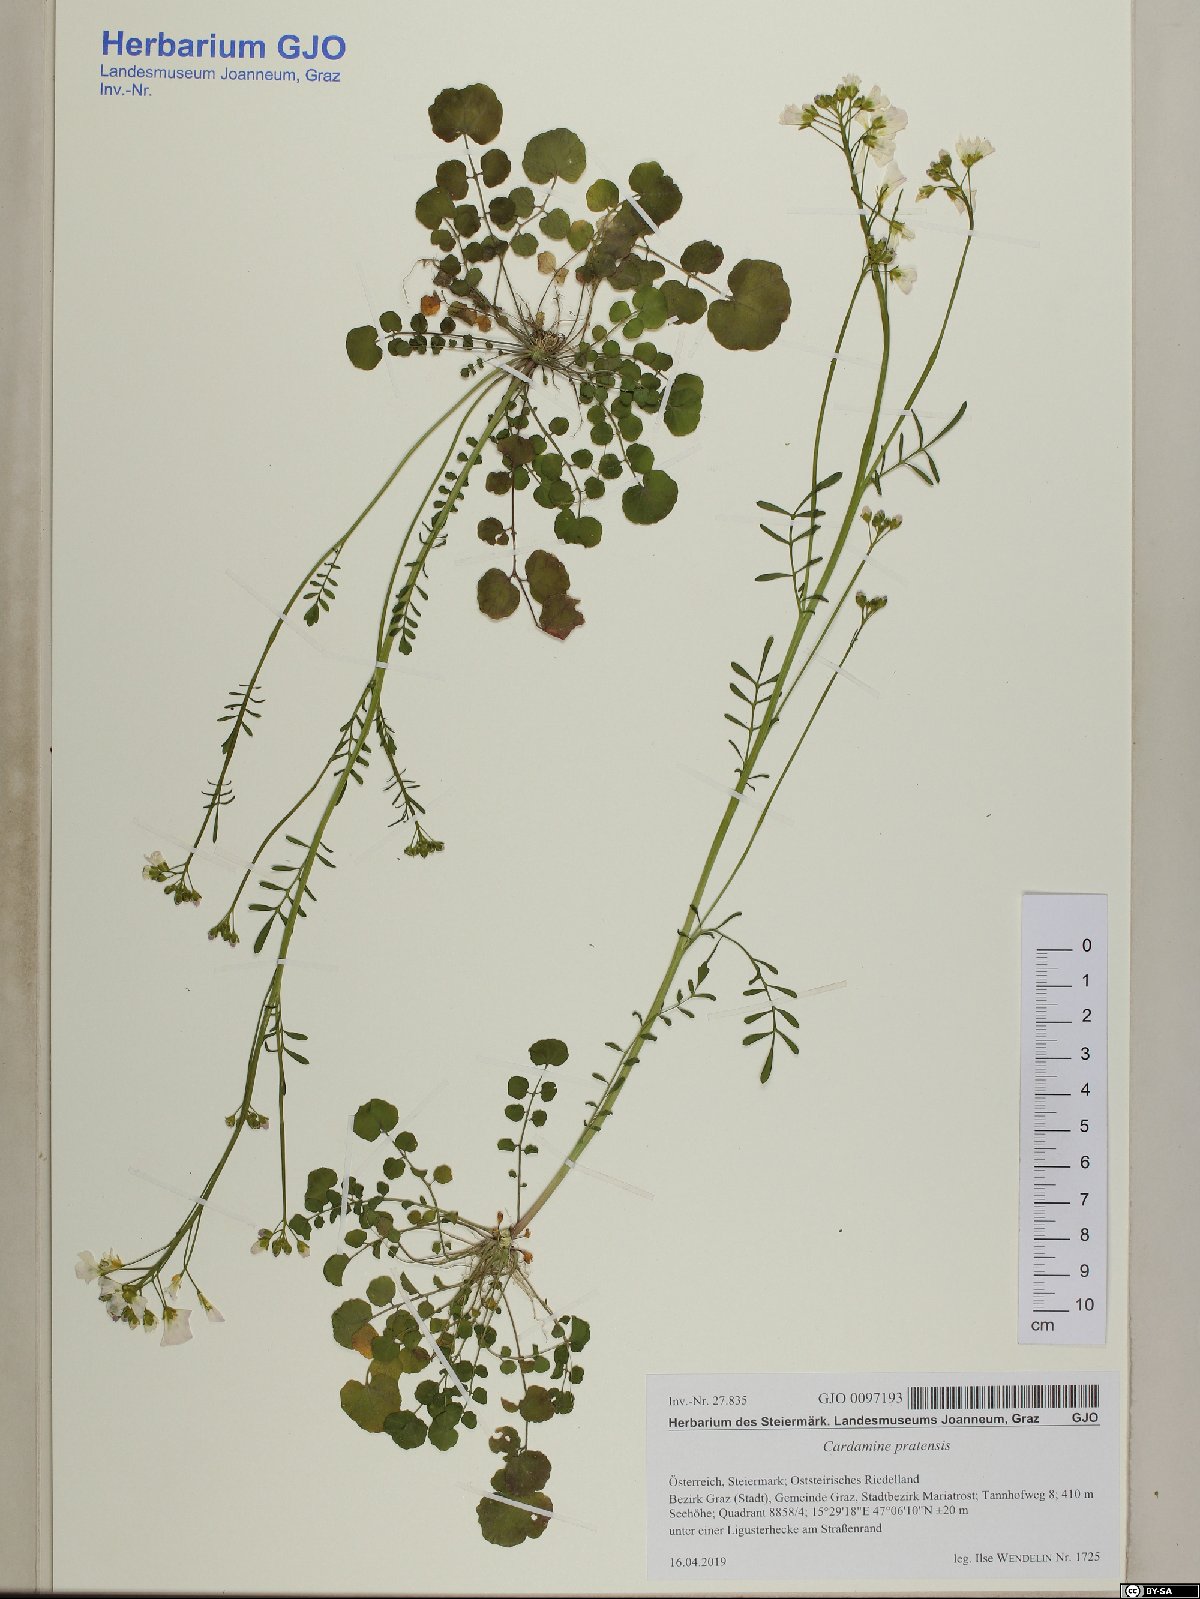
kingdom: Plantae
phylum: Tracheophyta
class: Magnoliopsida
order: Brassicales
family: Brassicaceae
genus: Cardamine
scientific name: Cardamine pratensis
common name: Cuckoo flower
